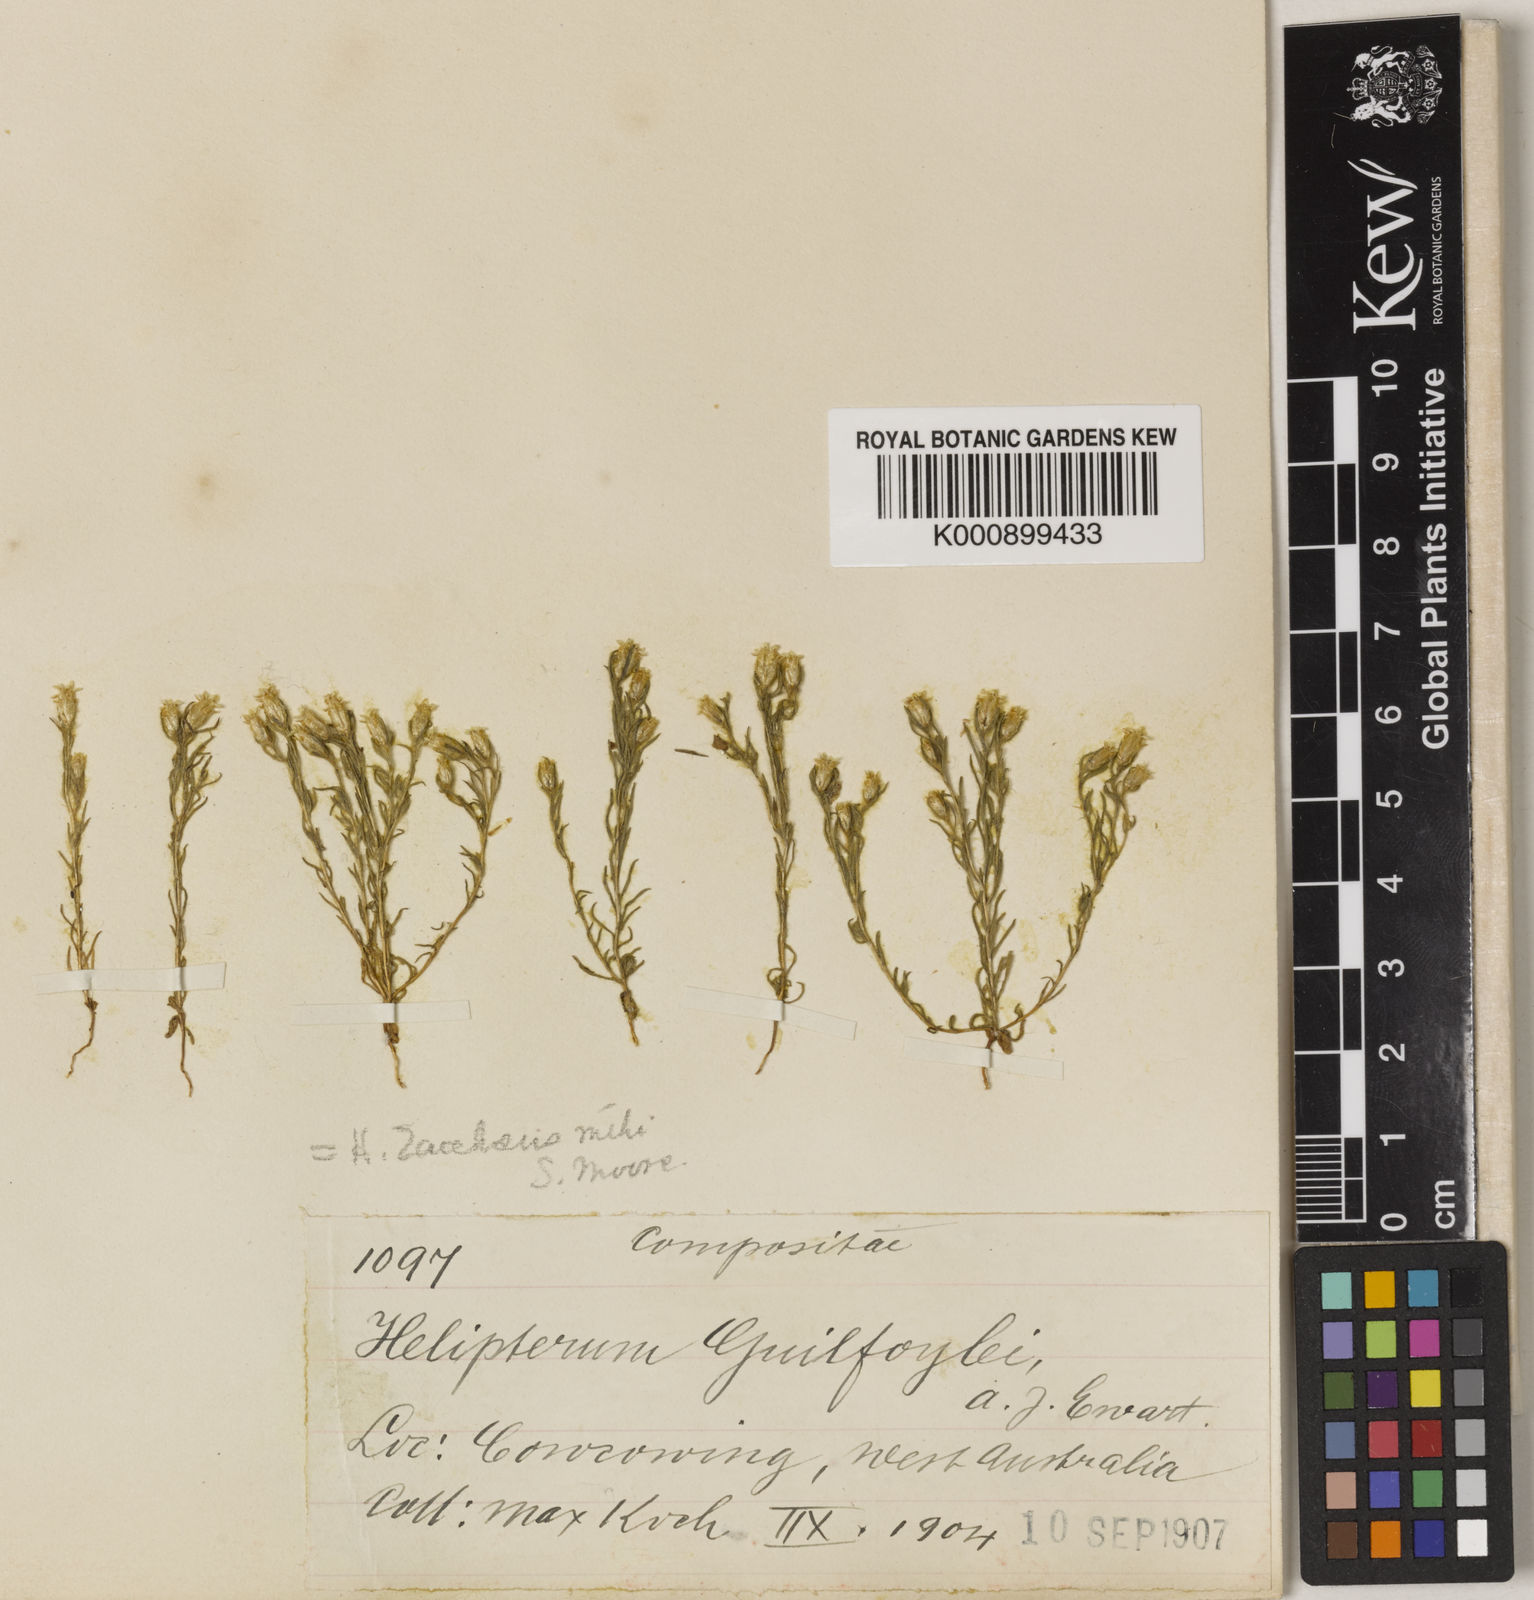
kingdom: Plantae
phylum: Tracheophyta
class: Magnoliopsida
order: Asterales
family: Asteraceae
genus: Hyalosperma
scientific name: Hyalosperma zacchaeus
